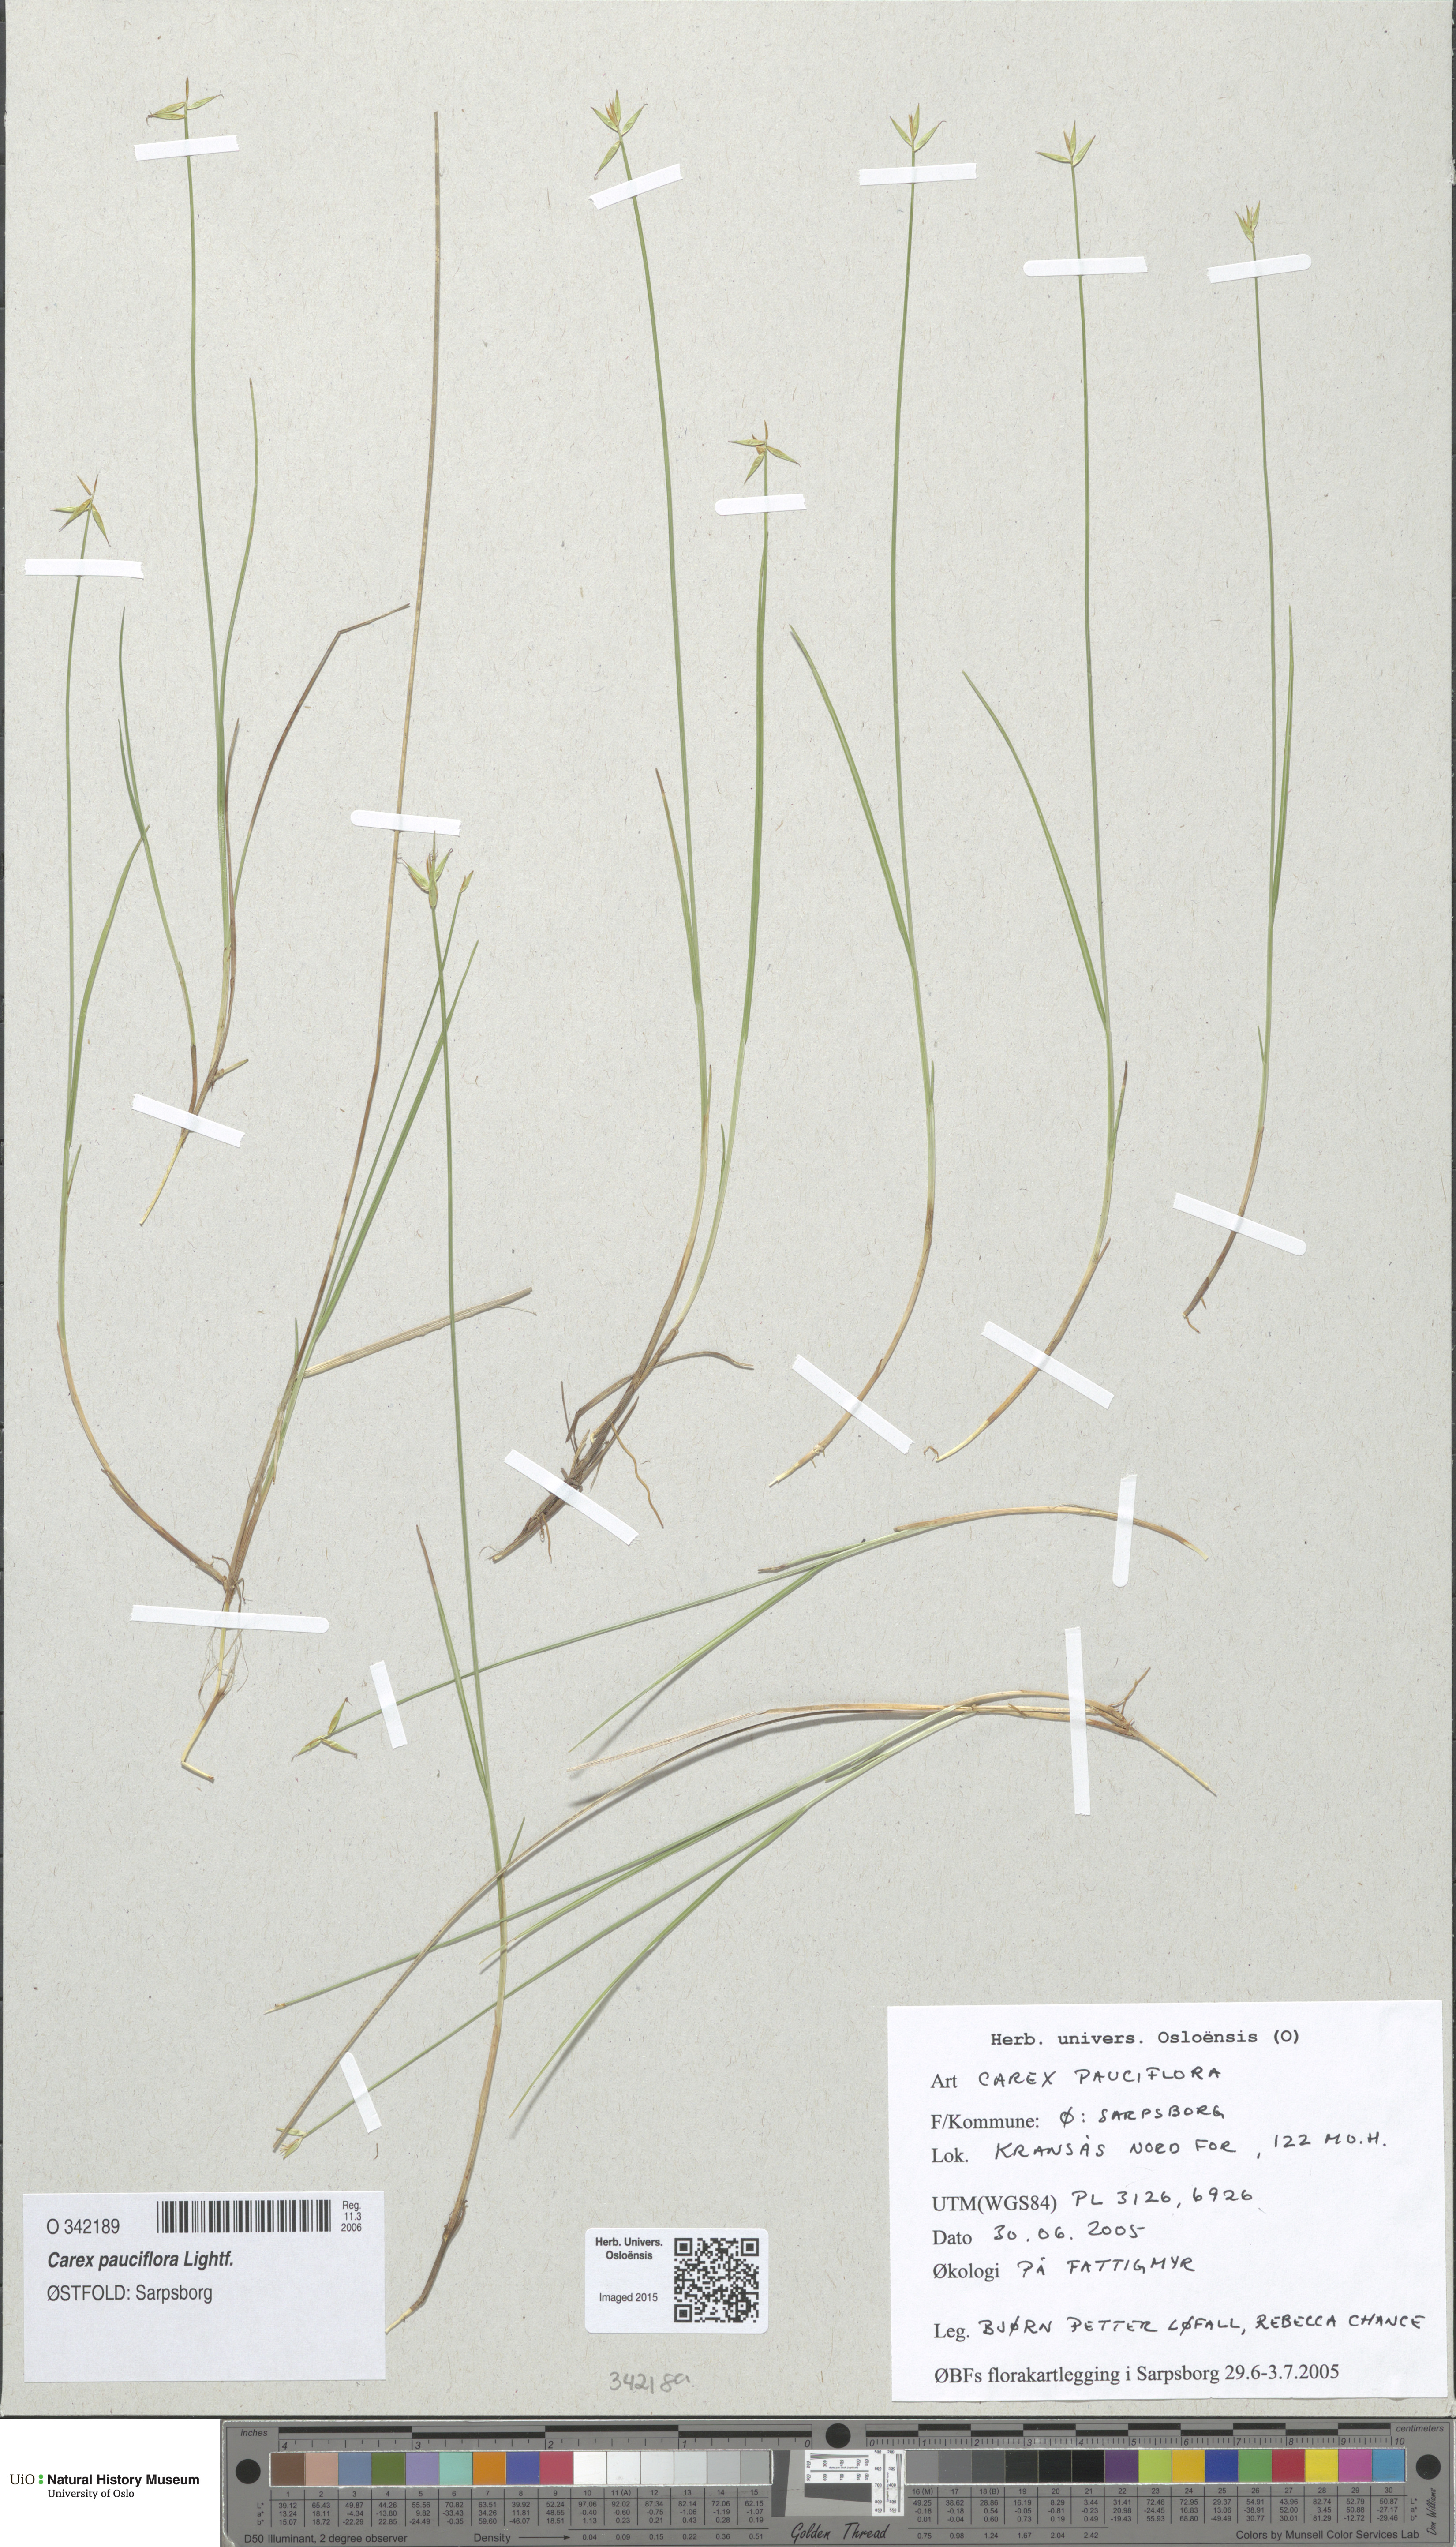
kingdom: Plantae
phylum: Tracheophyta
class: Liliopsida
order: Poales
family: Cyperaceae
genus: Carex
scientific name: Carex pauciflora
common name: Few-flowered sedge
